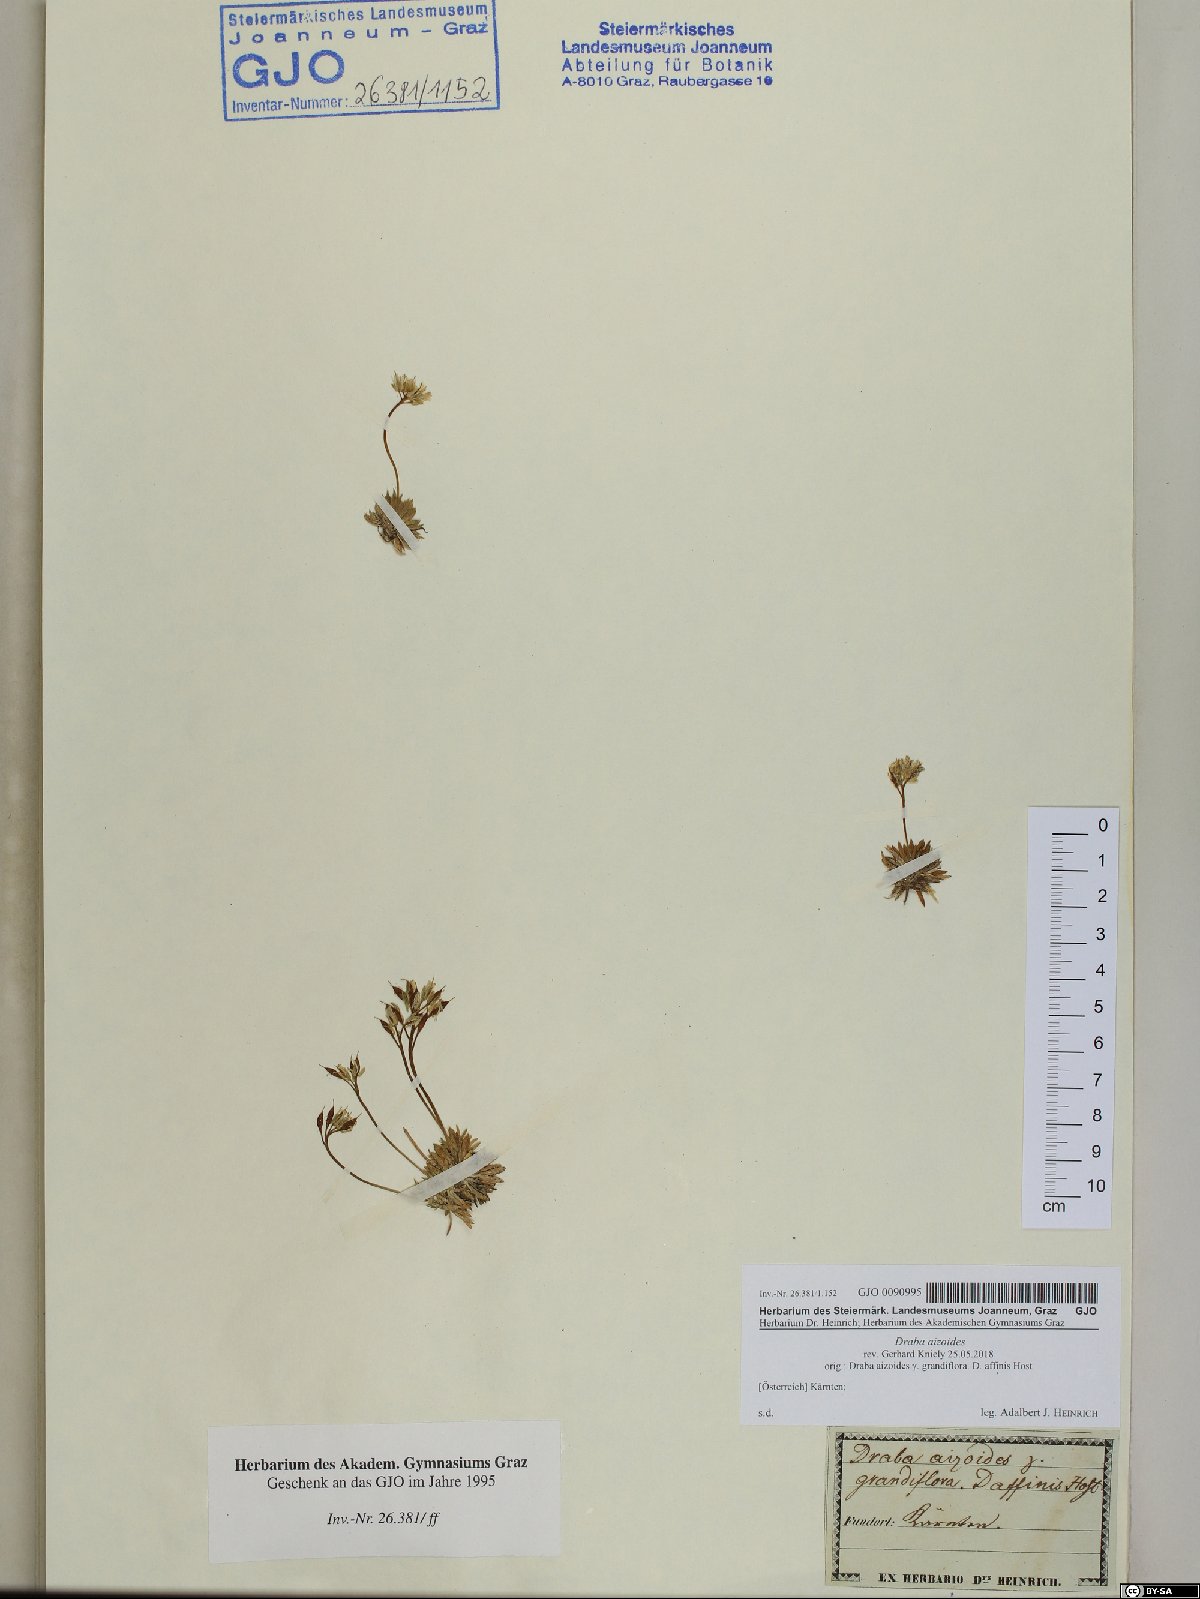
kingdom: Plantae
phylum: Tracheophyta
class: Magnoliopsida
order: Brassicales
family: Brassicaceae
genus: Draba
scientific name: Draba aizoides
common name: Yellow whitlowgrass
